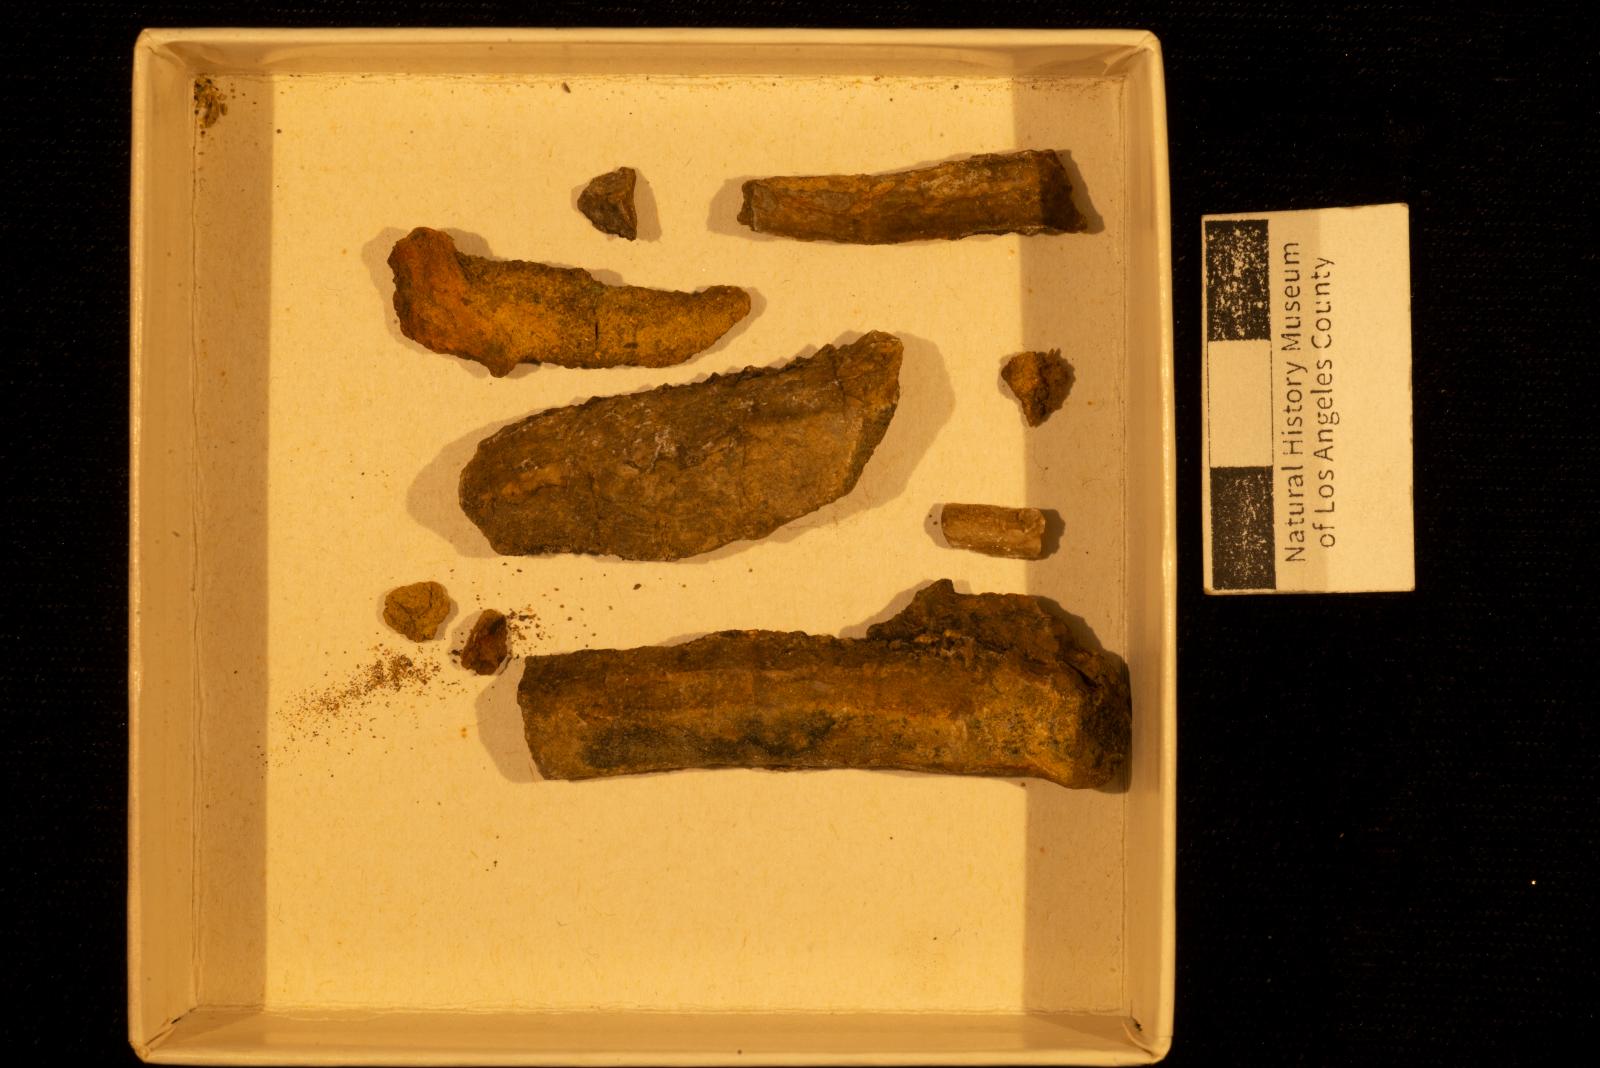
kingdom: Animalia
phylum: Mollusca
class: Bivalvia
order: Myida
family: Pholadidae
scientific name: Pholadidae
